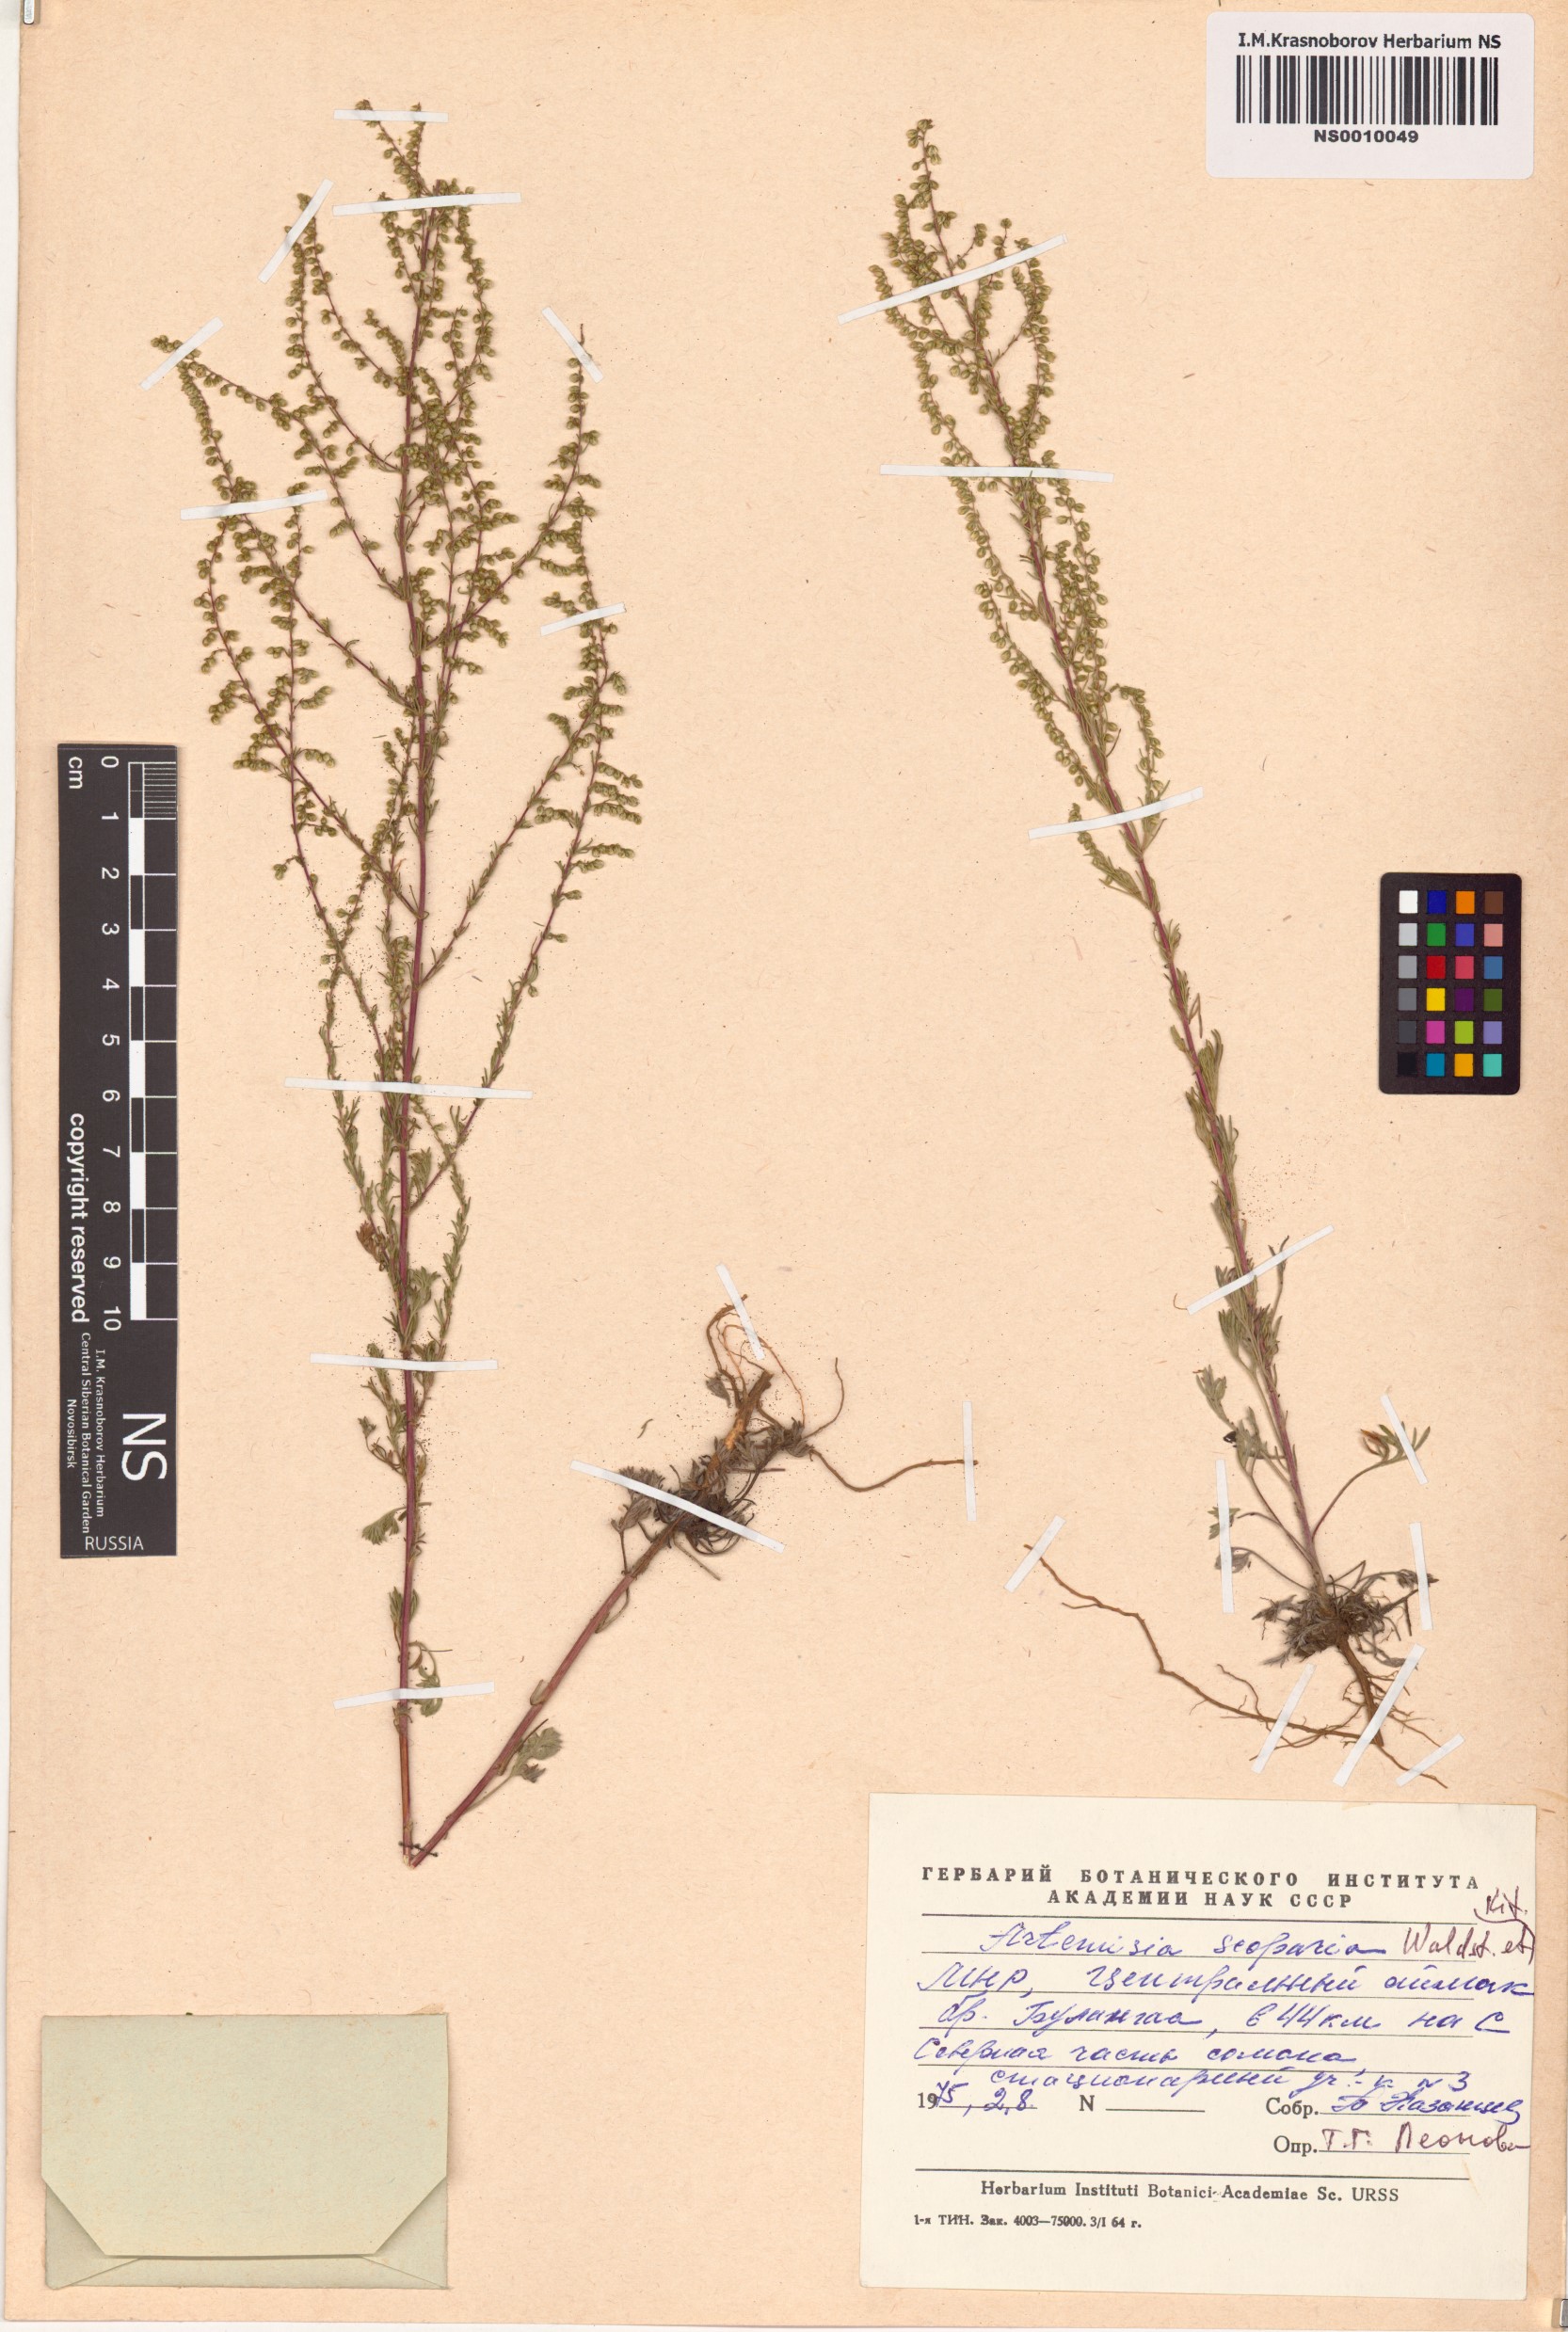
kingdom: Plantae
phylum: Tracheophyta
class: Magnoliopsida
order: Asterales
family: Asteraceae
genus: Artemisia
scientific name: Artemisia scoparia
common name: Redstem wormwood
